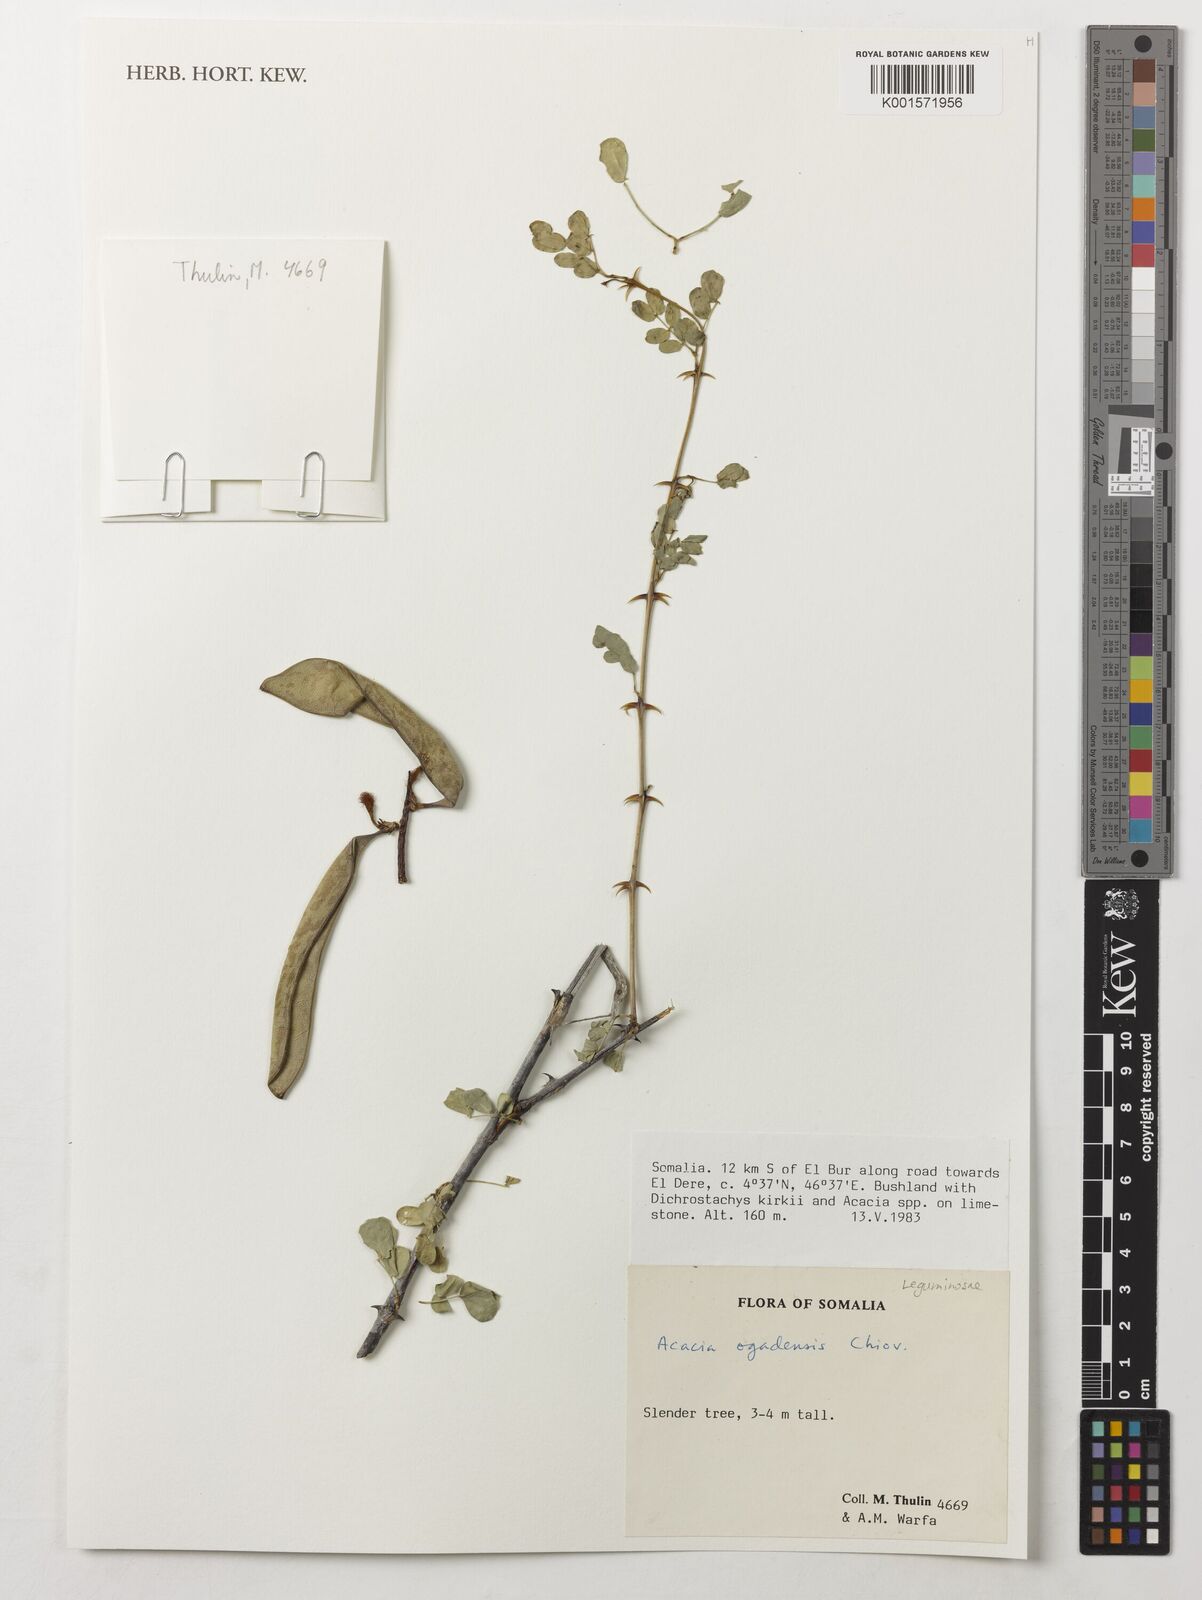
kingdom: Plantae
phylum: Tracheophyta
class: Magnoliopsida
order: Fabales
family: Fabaceae
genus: Senegalia
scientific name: Senegalia ogadensis
